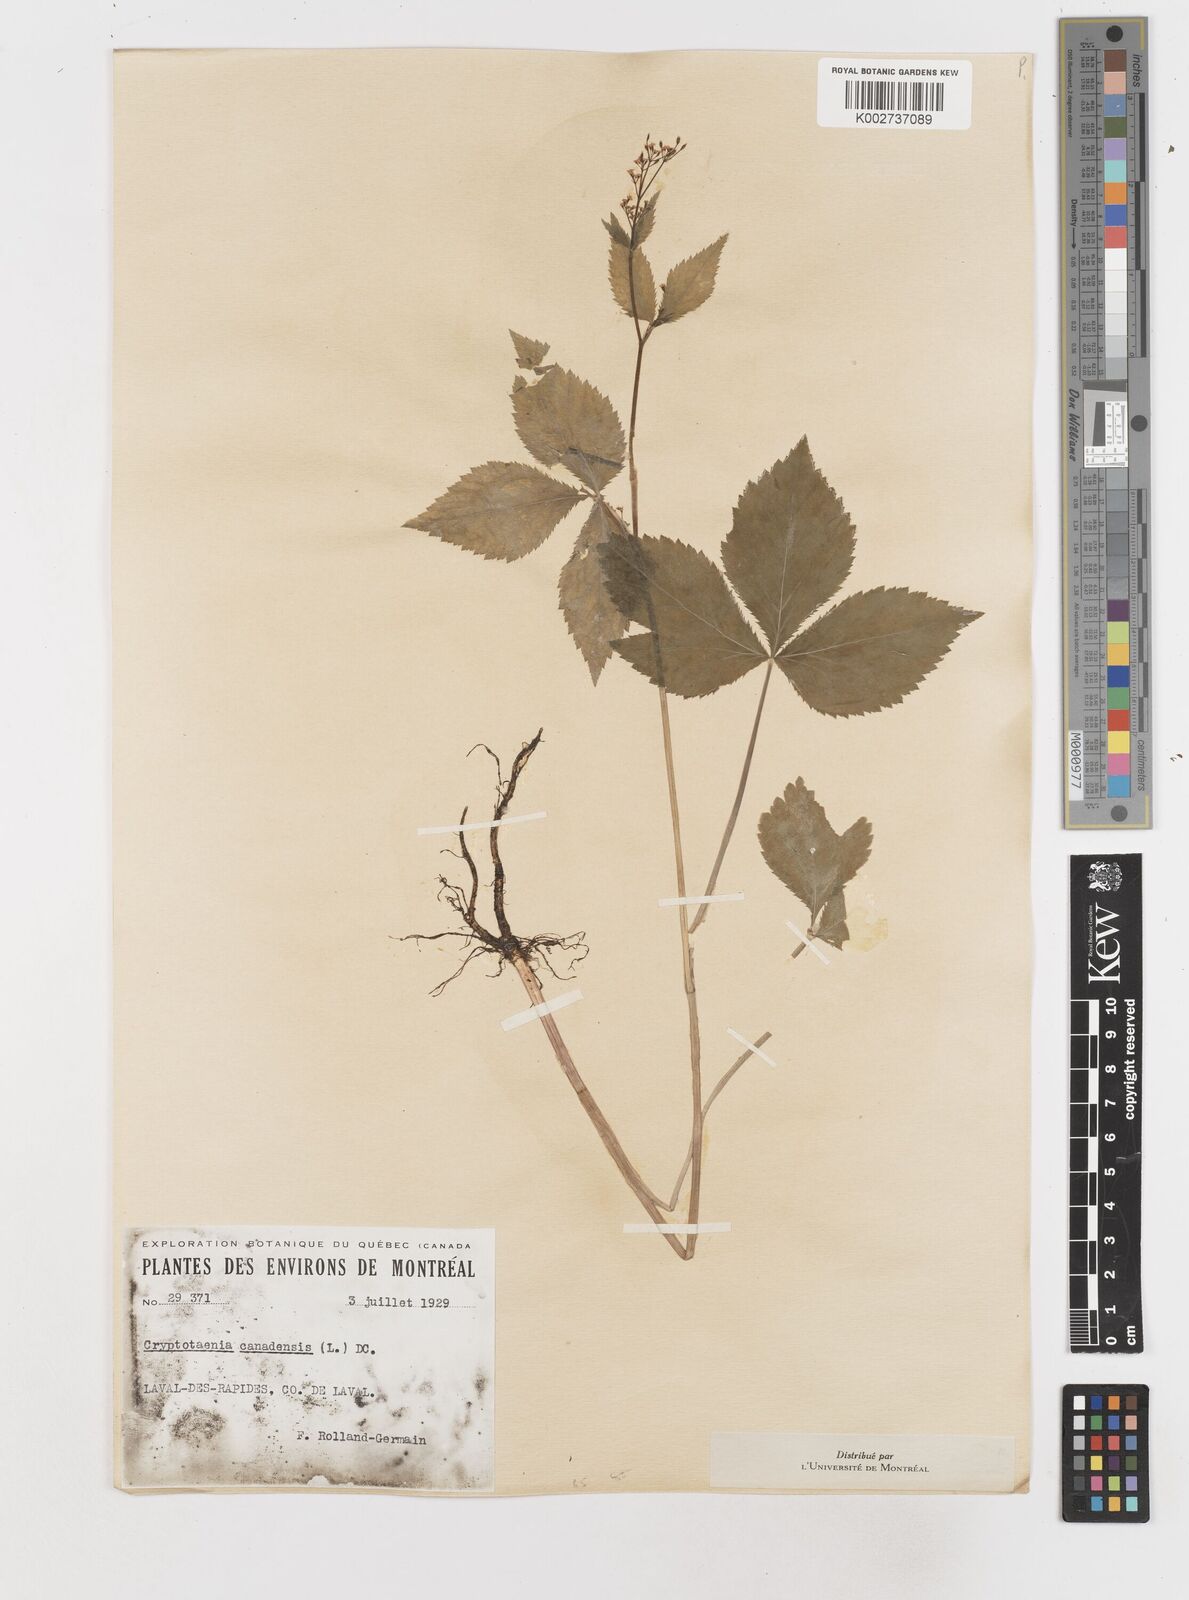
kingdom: Plantae
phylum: Tracheophyta
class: Magnoliopsida
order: Apiales
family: Apiaceae
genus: Cryptotaenia
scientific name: Cryptotaenia canadensis
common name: Honewort
